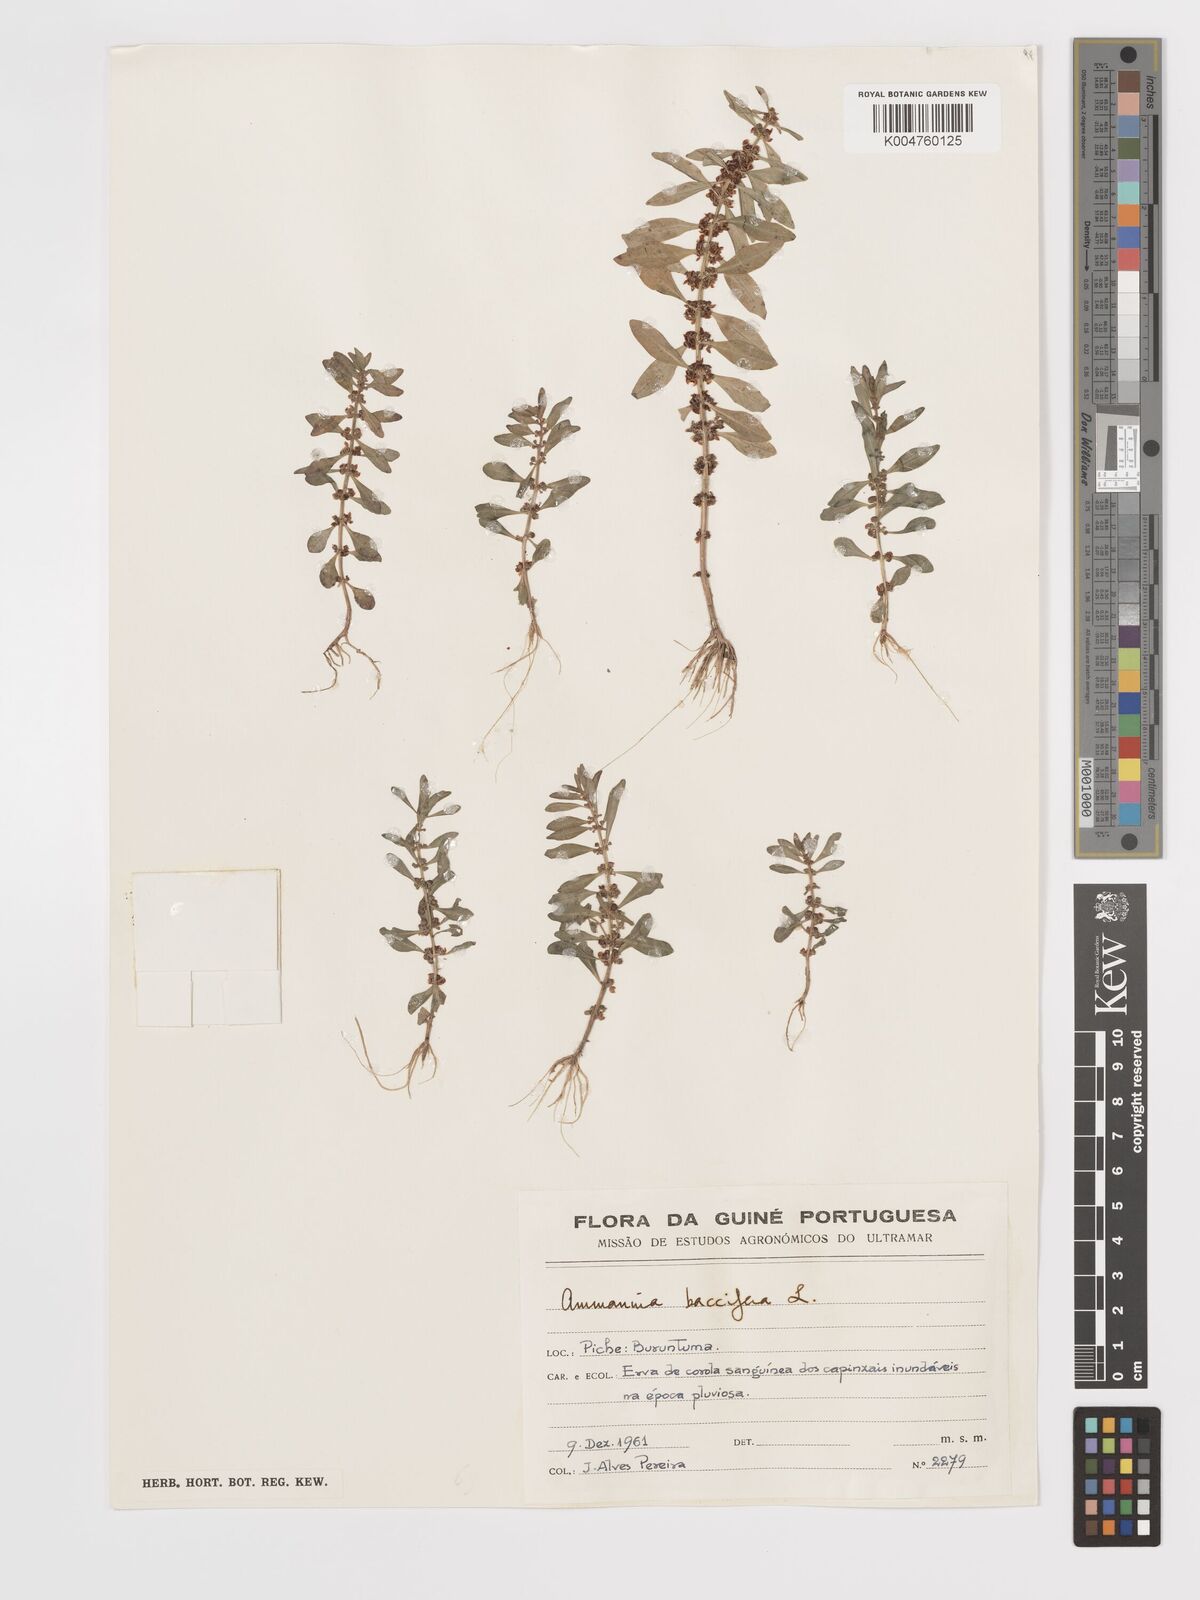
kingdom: Plantae
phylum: Tracheophyta
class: Magnoliopsida
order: Myrtales
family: Lythraceae
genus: Ammannia
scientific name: Ammannia
